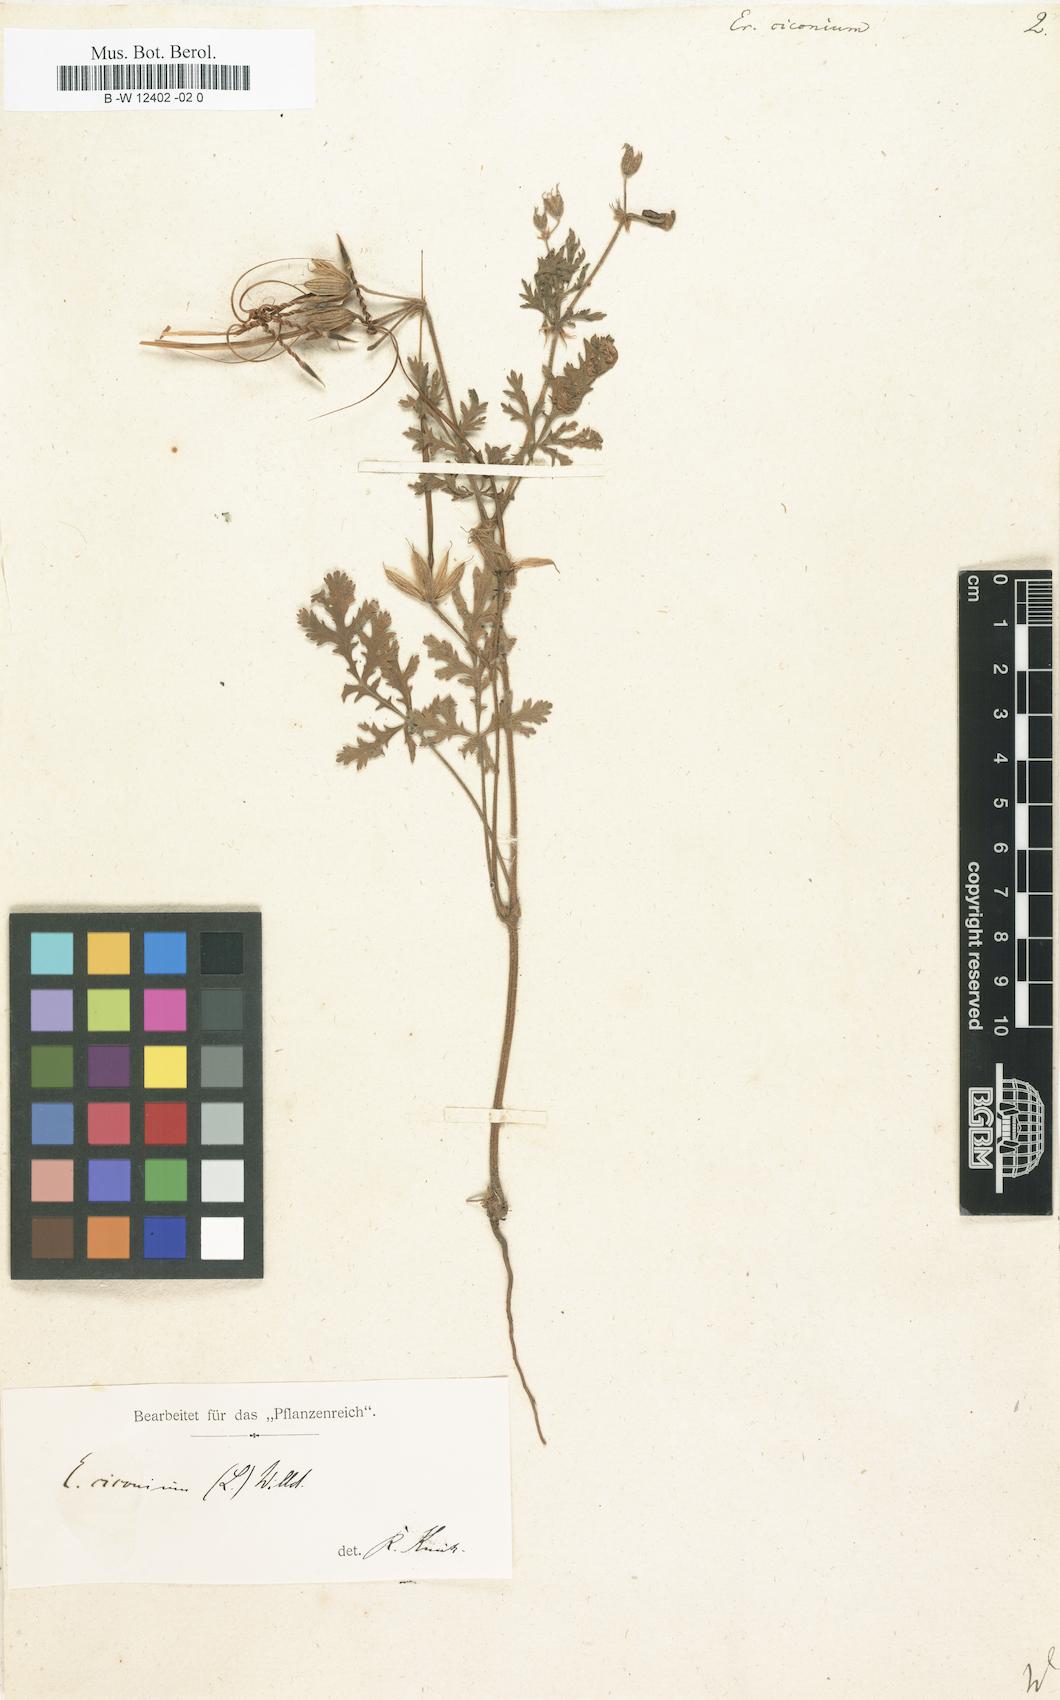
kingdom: Plantae
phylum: Tracheophyta
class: Magnoliopsida
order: Geraniales
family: Geraniaceae
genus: Erodium
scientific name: Erodium ciconium
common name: Common stork's bill
